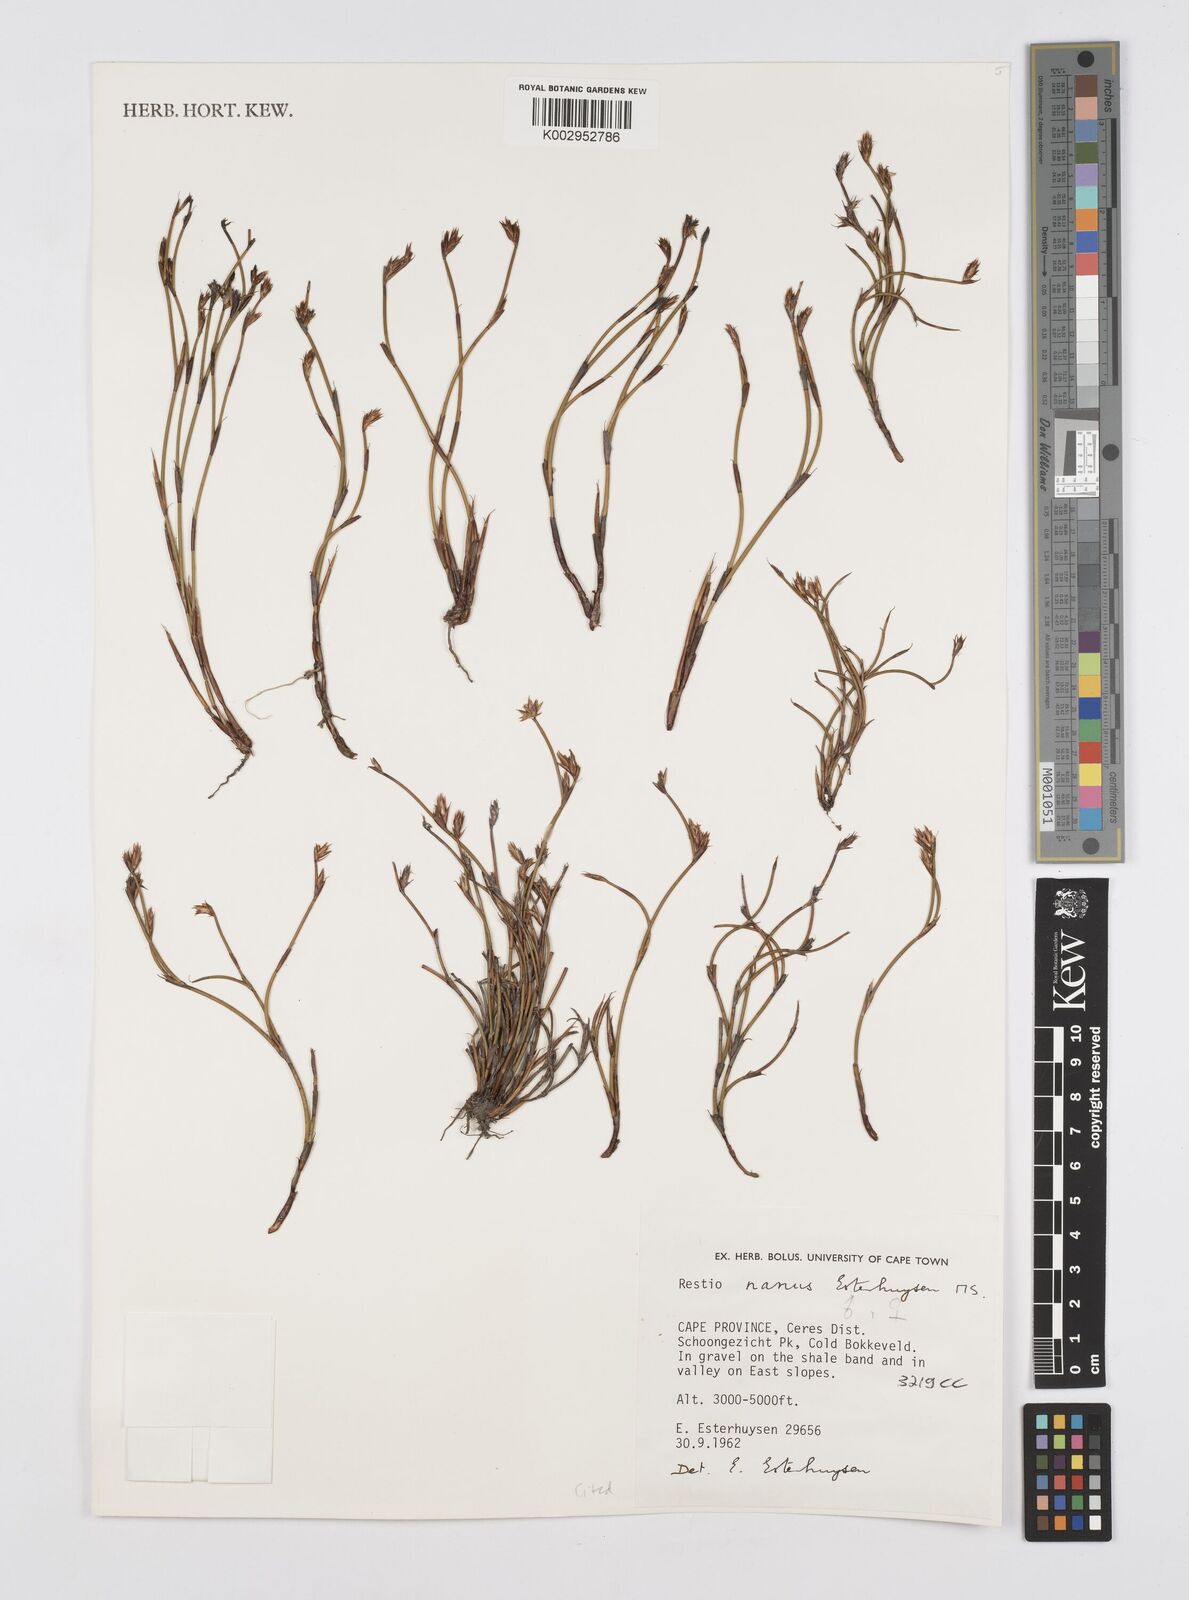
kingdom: Plantae
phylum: Tracheophyta
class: Liliopsida
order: Poales
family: Restionaceae
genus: Restio
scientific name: Restio nanus
